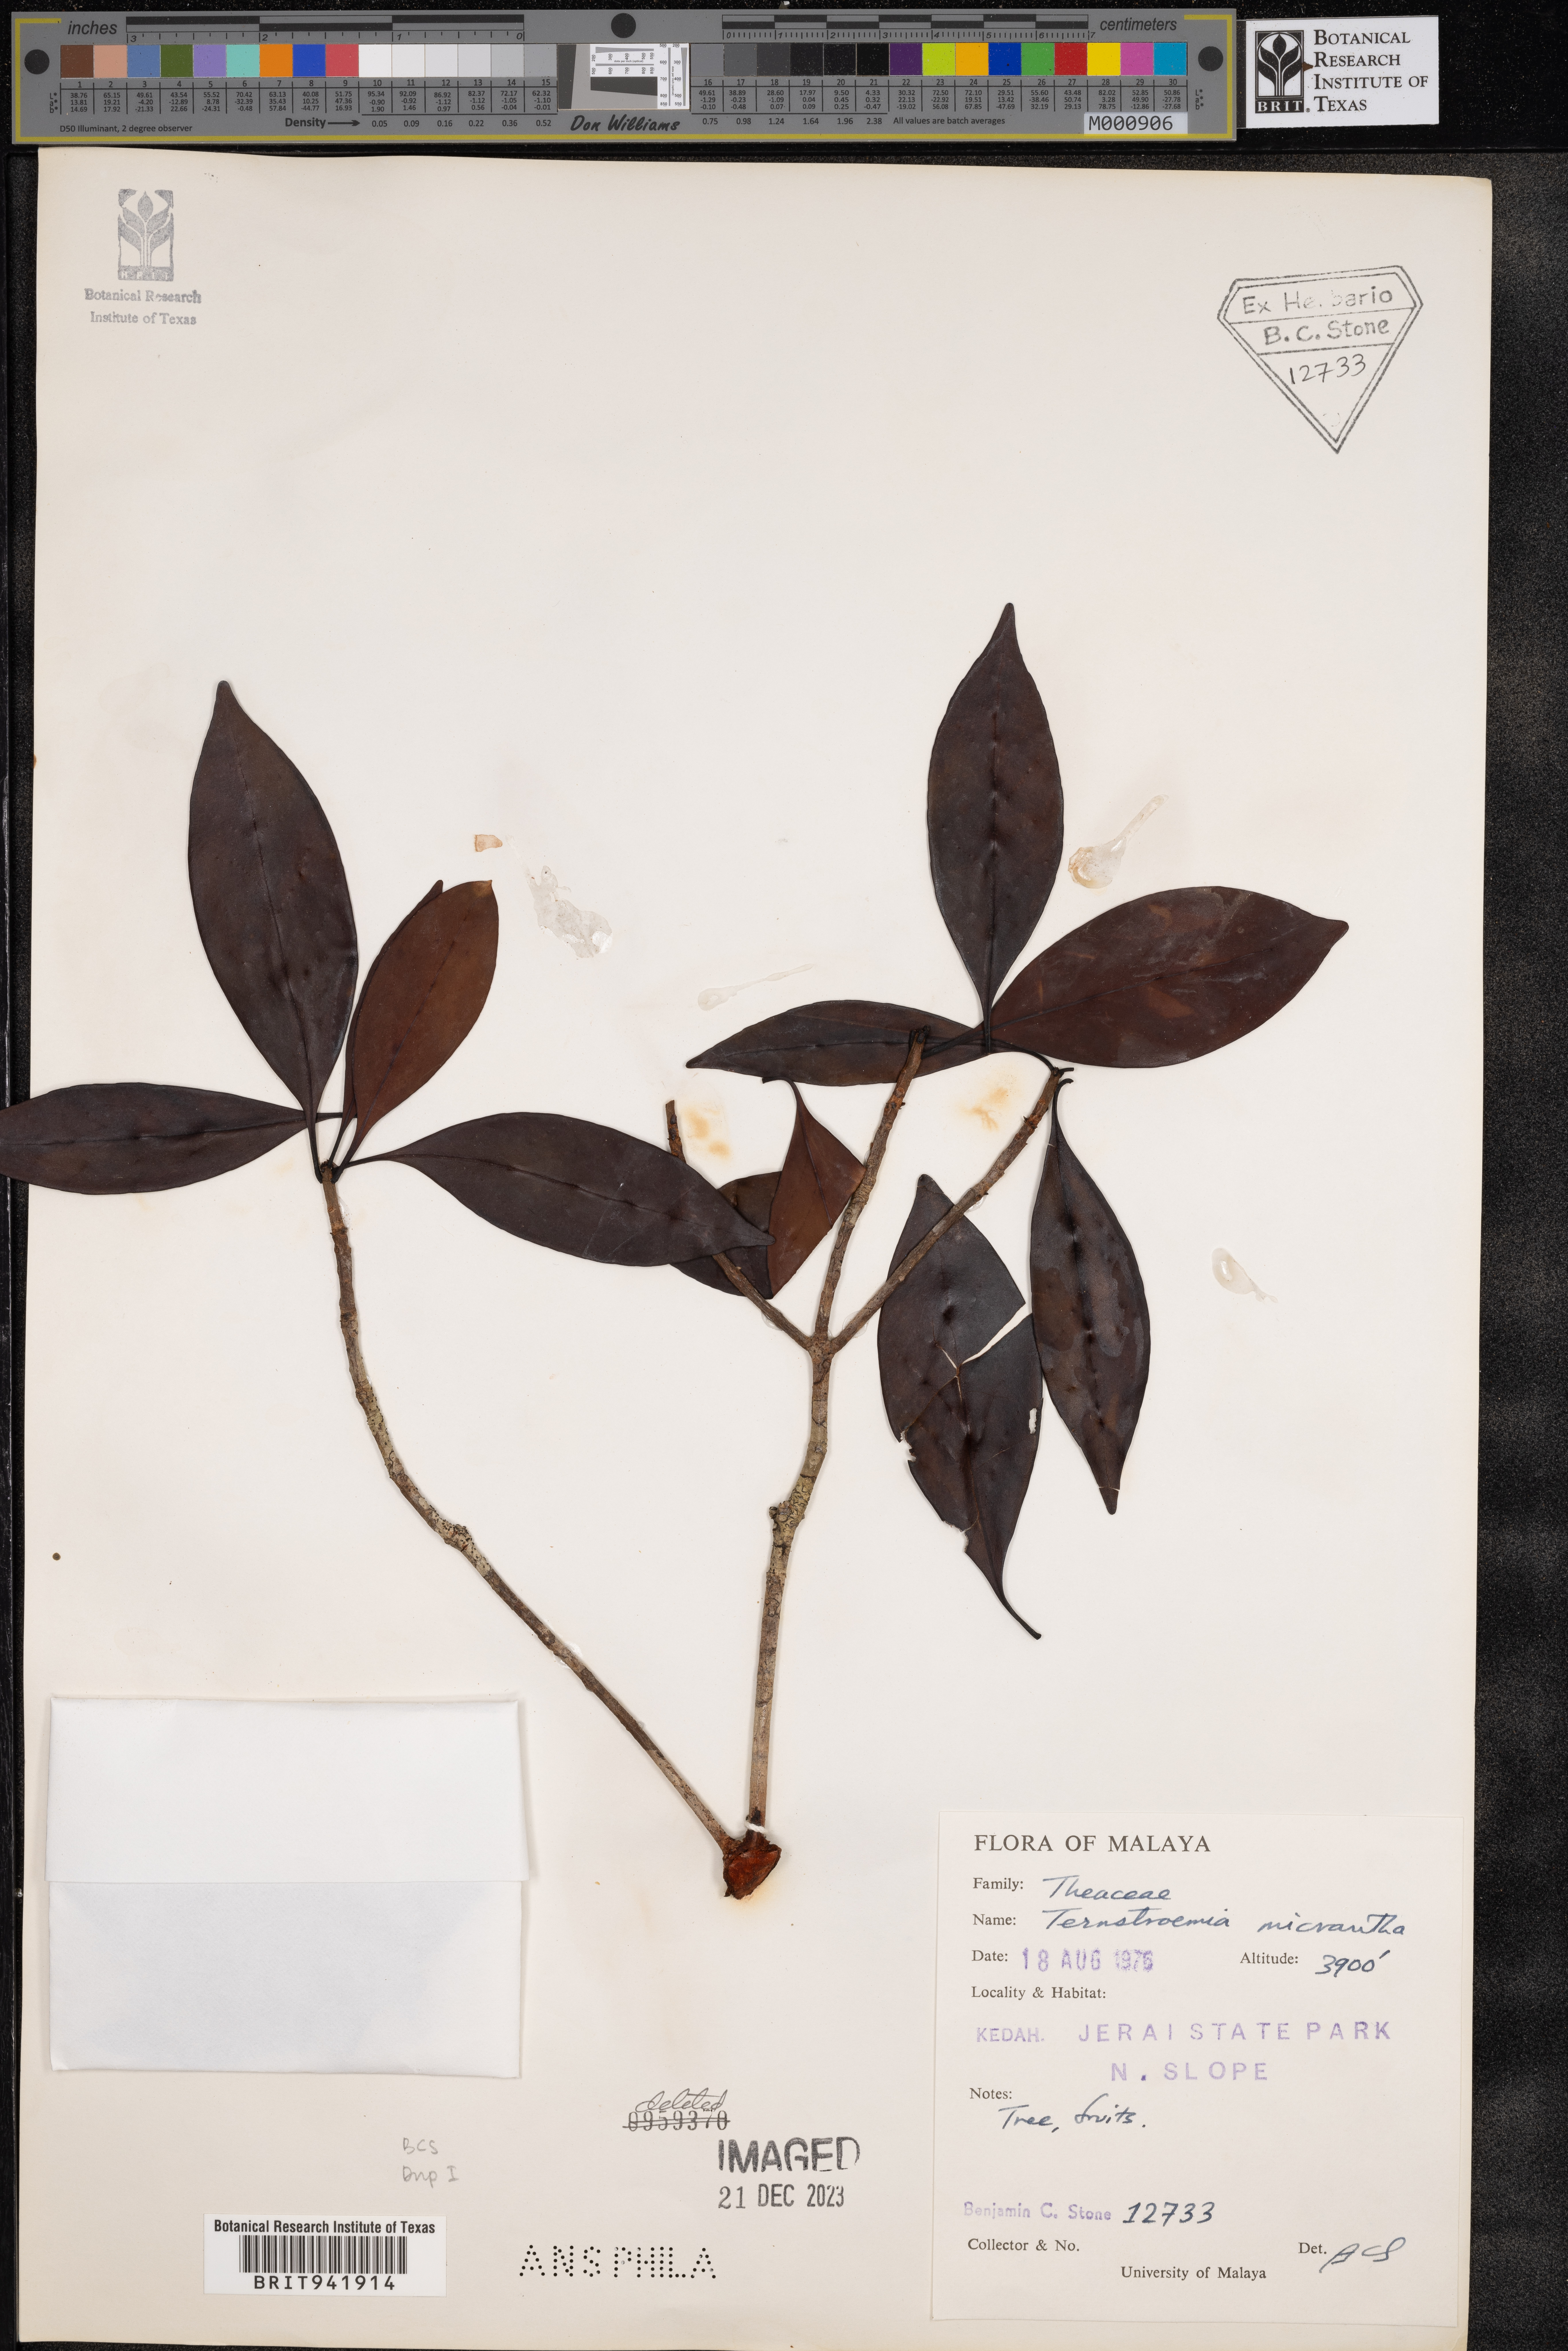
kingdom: Plantae
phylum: Tracheophyta
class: Magnoliopsida
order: Ericales
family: Theaceae
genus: Terustroemia
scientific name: Terustroemia
